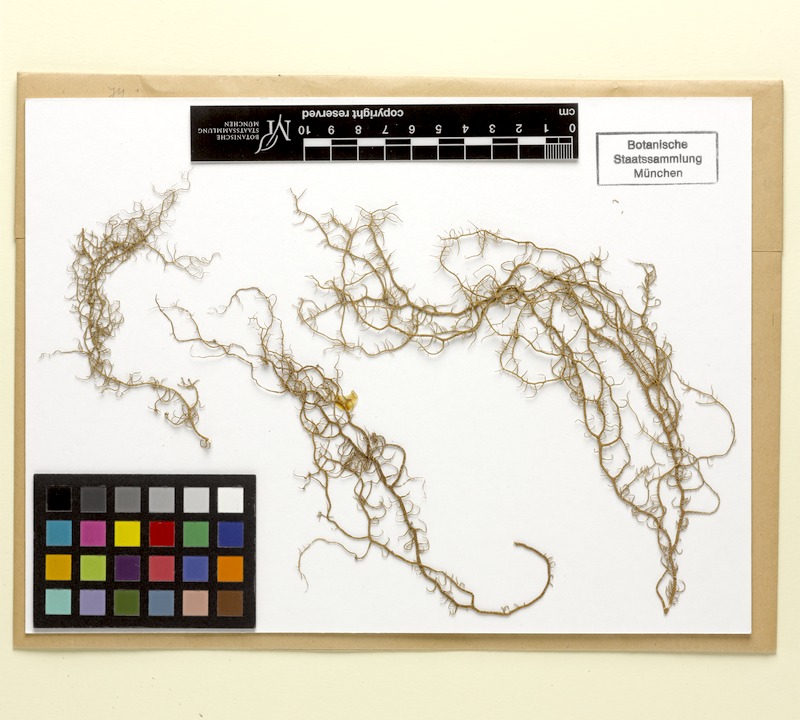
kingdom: Fungi
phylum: Ascomycota
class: Lecanoromycetes
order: Lecanorales
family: Parmeliaceae
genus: Usnea
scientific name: Usnea quasirigida
